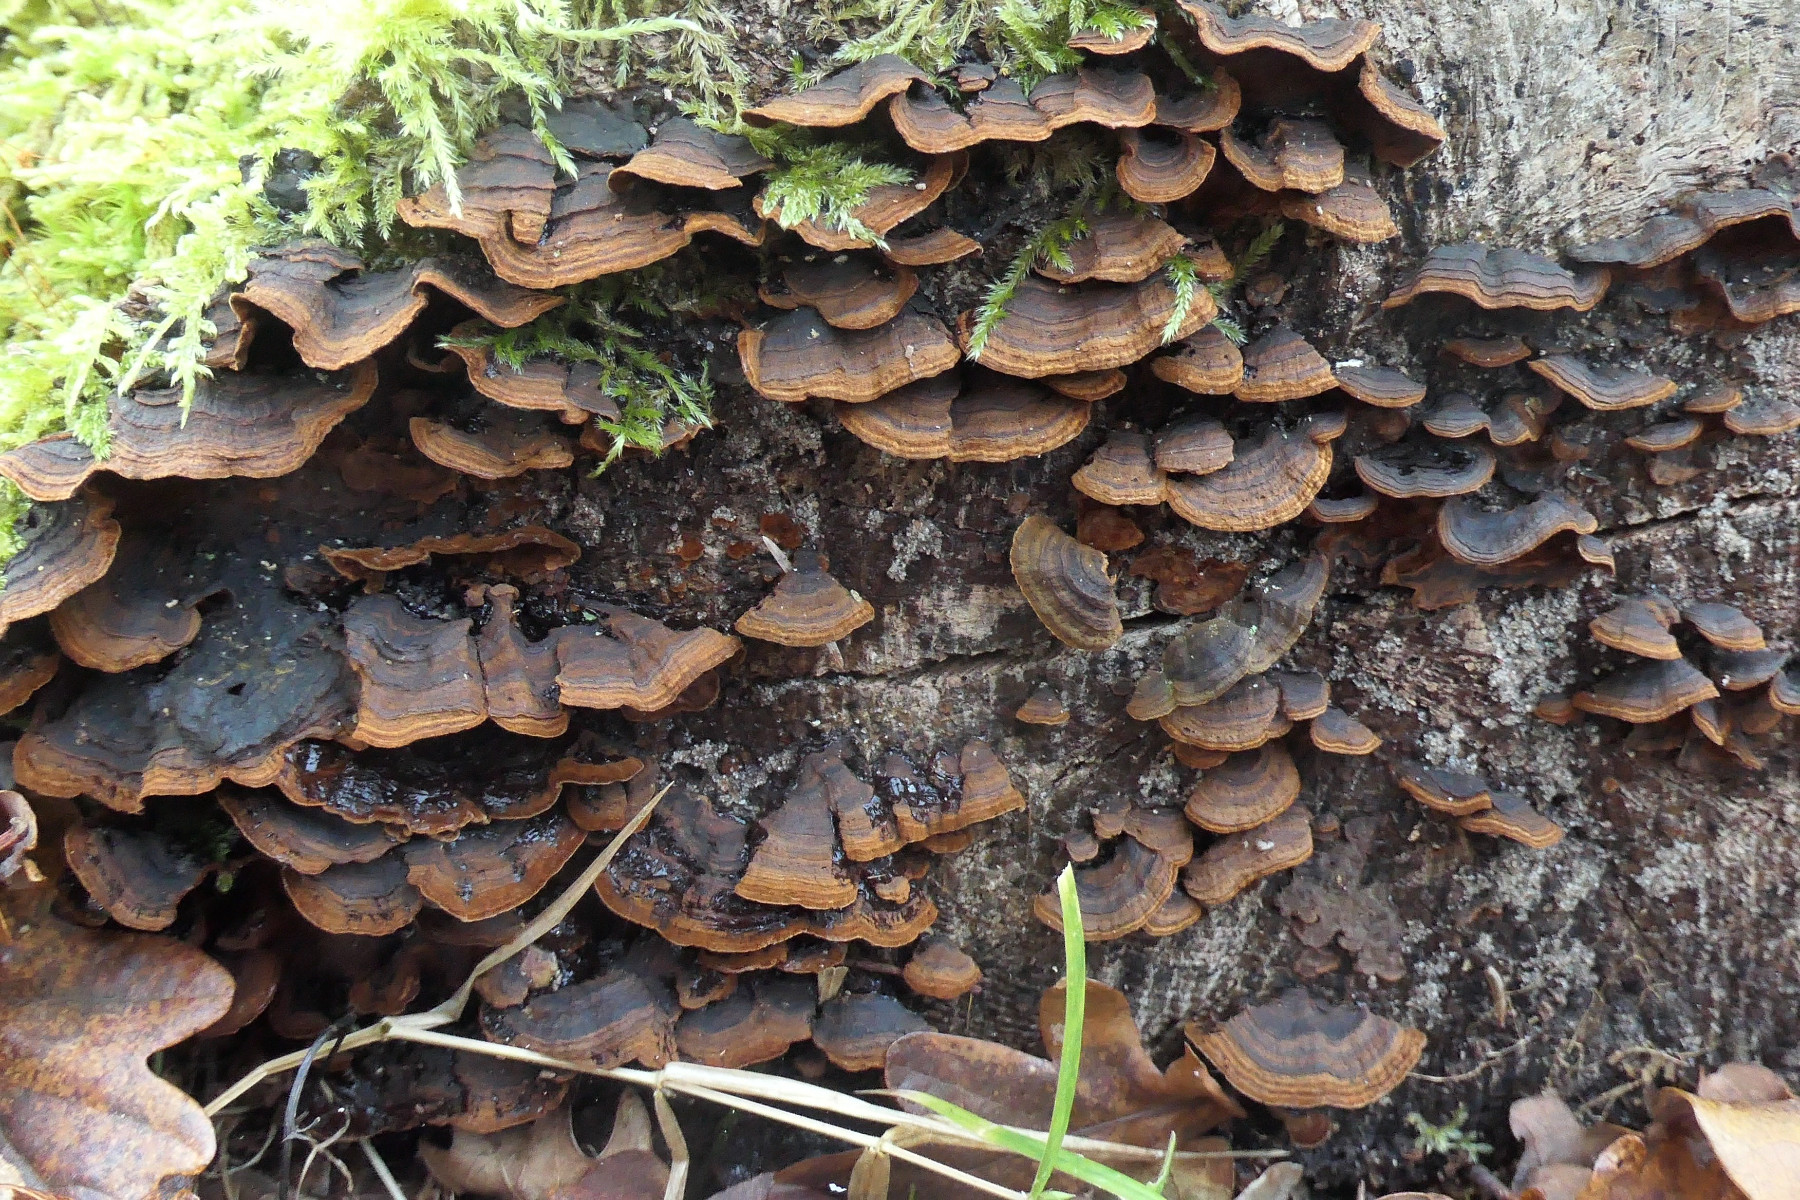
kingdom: Fungi
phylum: Basidiomycota
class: Agaricomycetes
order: Hymenochaetales
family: Hymenochaetaceae
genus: Hymenochaete
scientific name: Hymenochaete rubiginosa
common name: stiv ruslædersvamp
